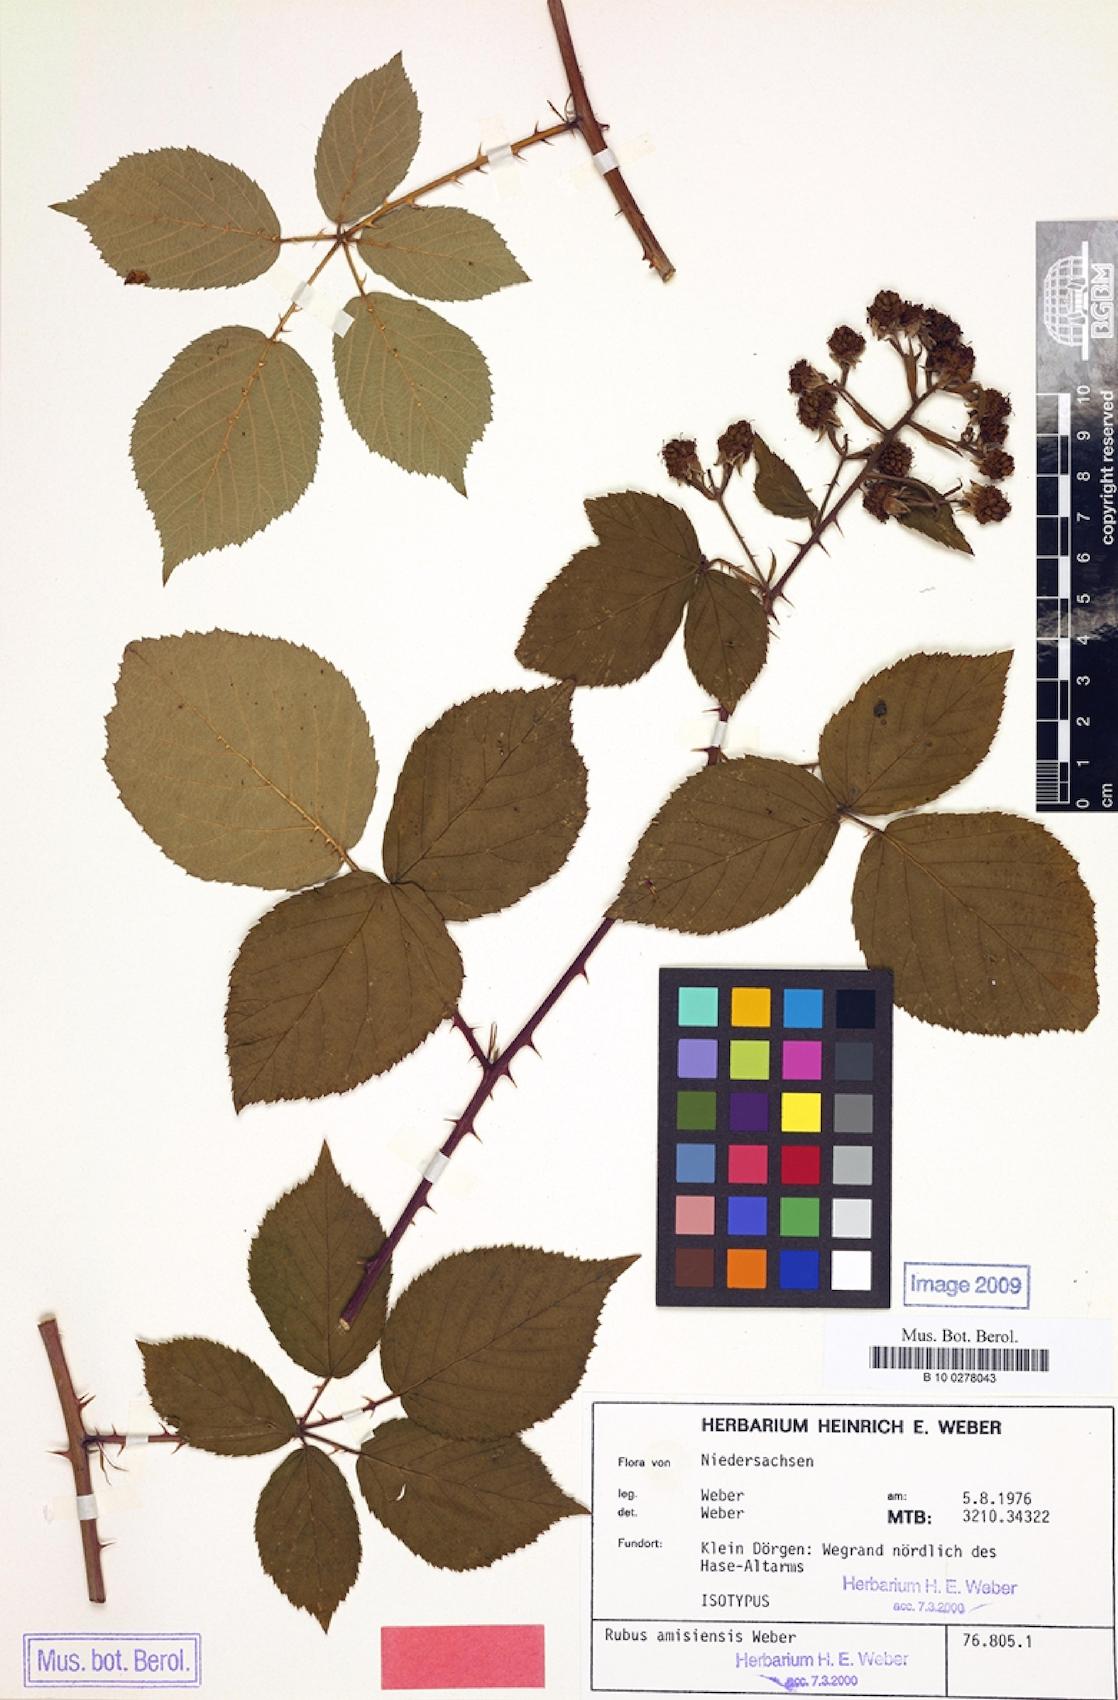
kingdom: Plantae
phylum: Tracheophyta
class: Magnoliopsida
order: Rosales
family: Rosaceae
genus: Rubus
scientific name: Rubus amisiensis
